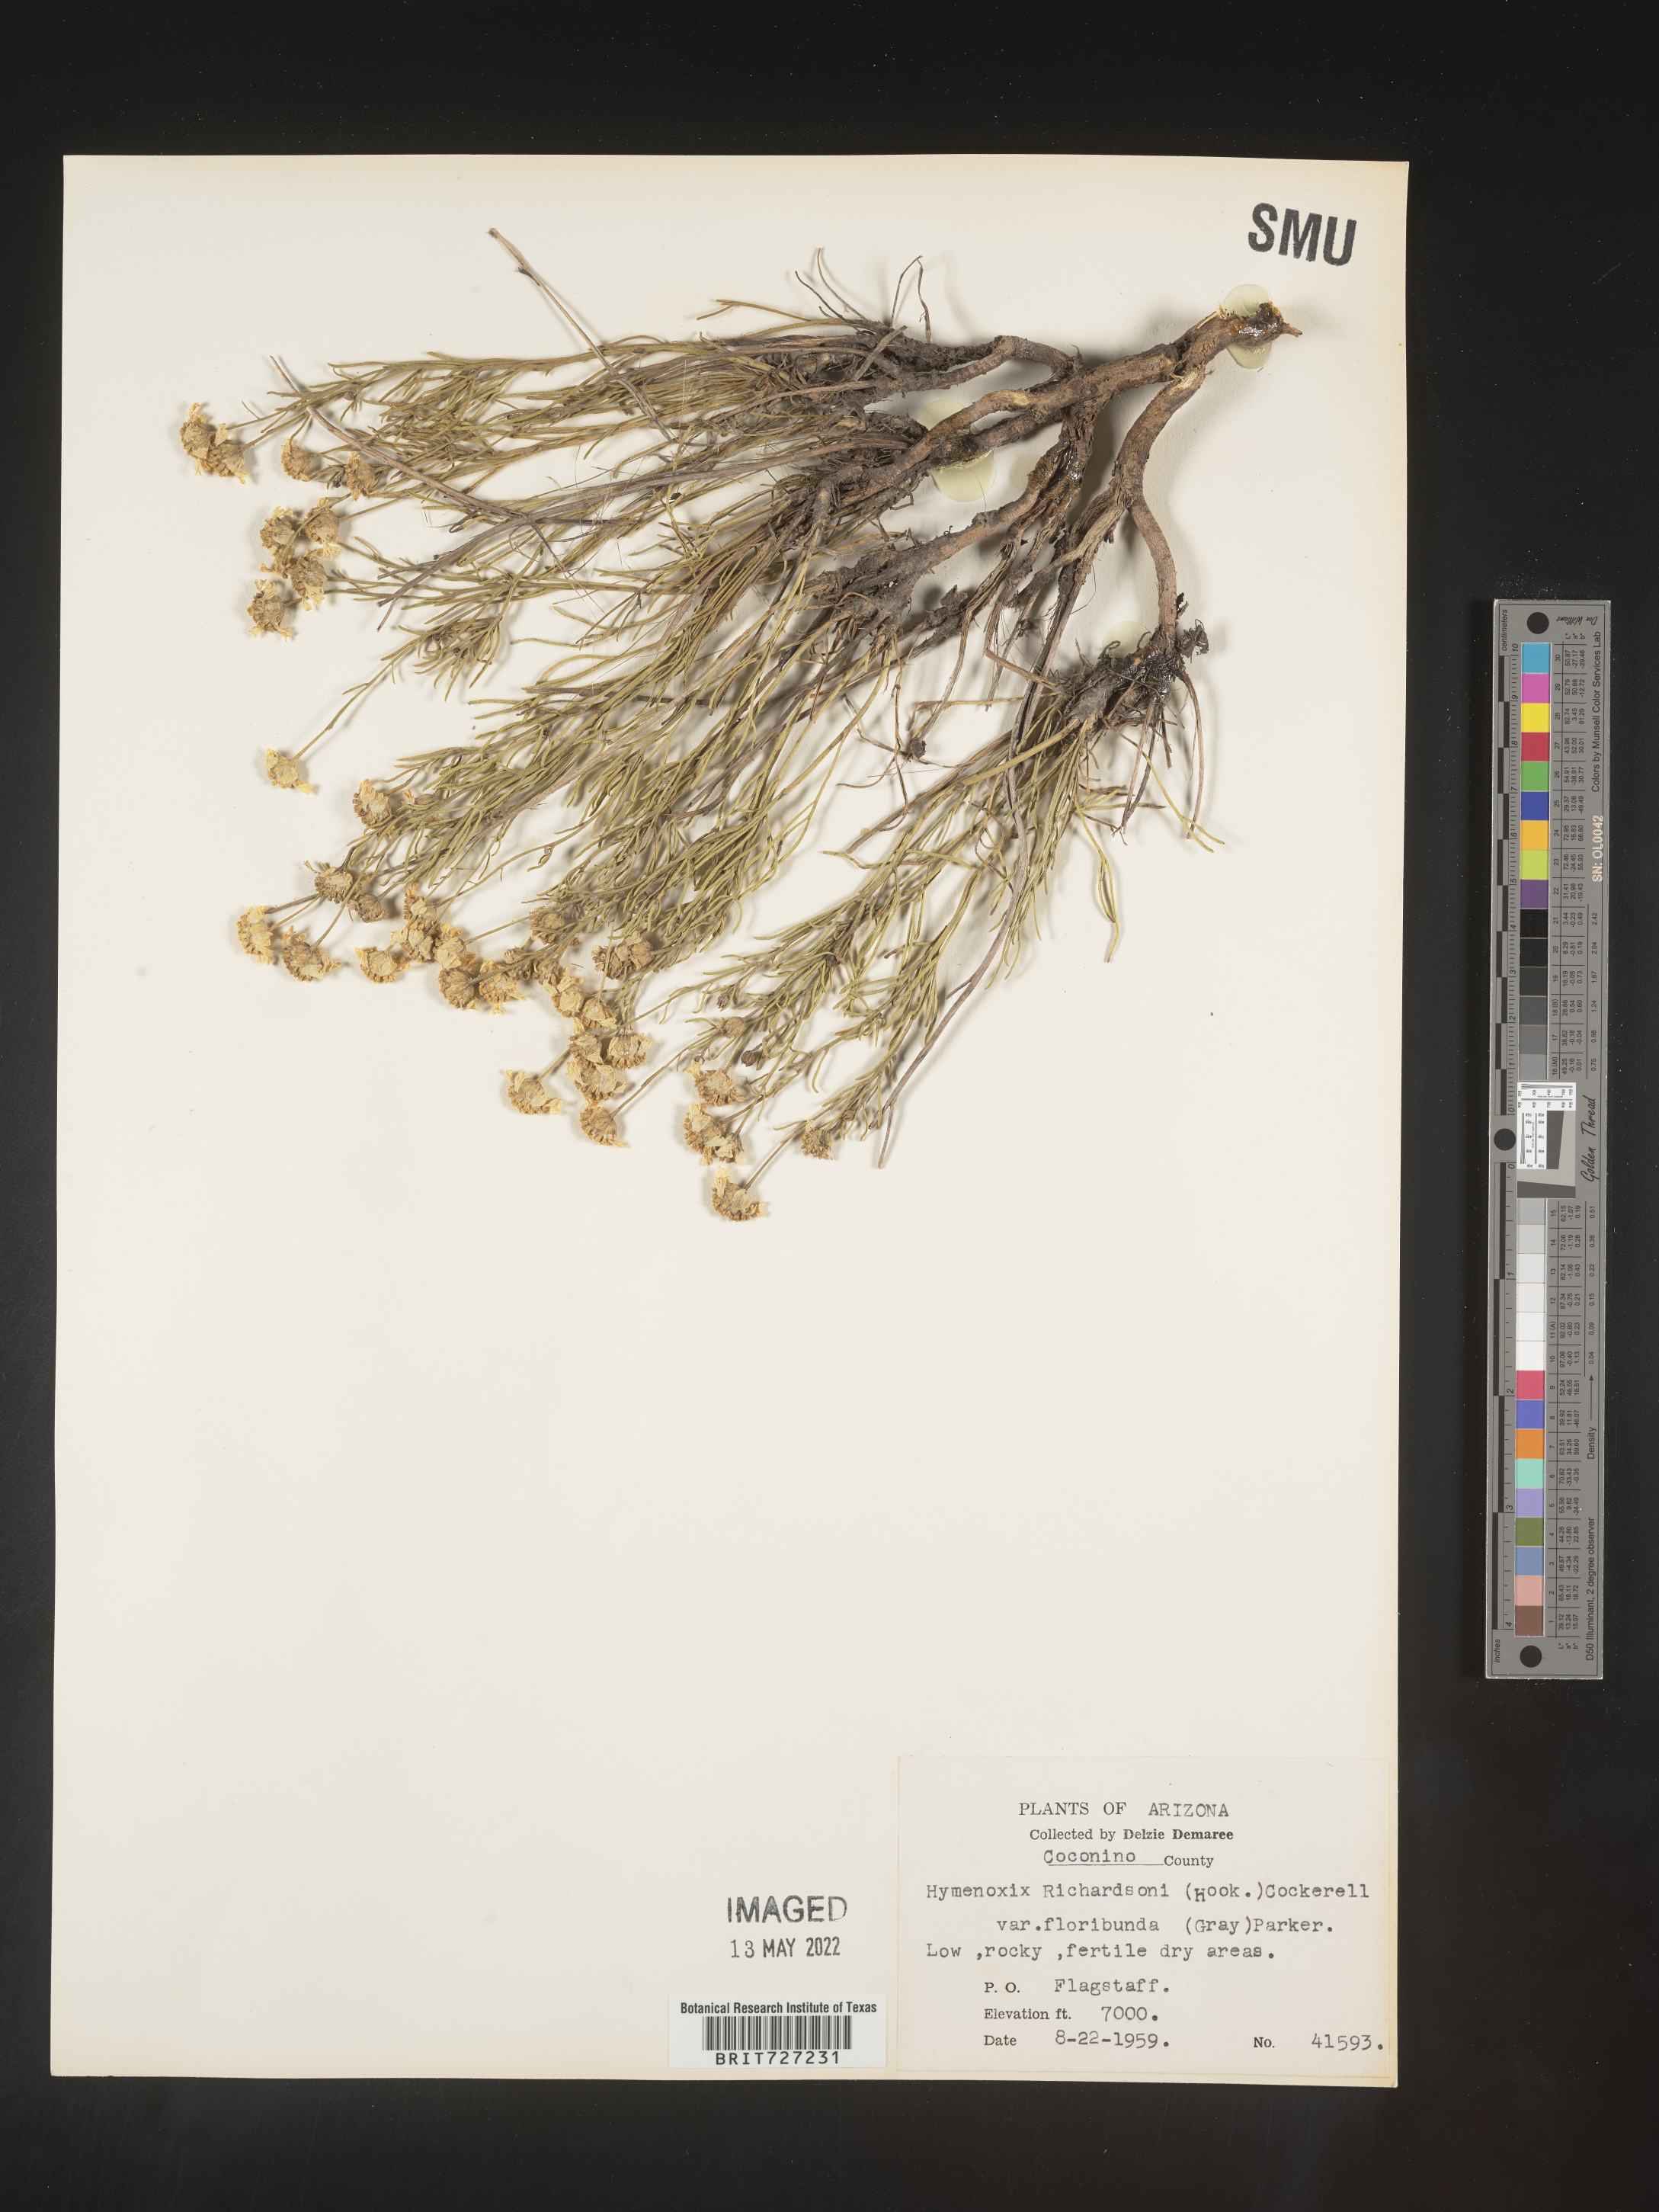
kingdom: Plantae
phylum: Tracheophyta
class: Magnoliopsida
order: Asterales
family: Asteraceae
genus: Hymenoxys
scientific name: Hymenoxys richardsonii
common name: Pingue rubberweed
